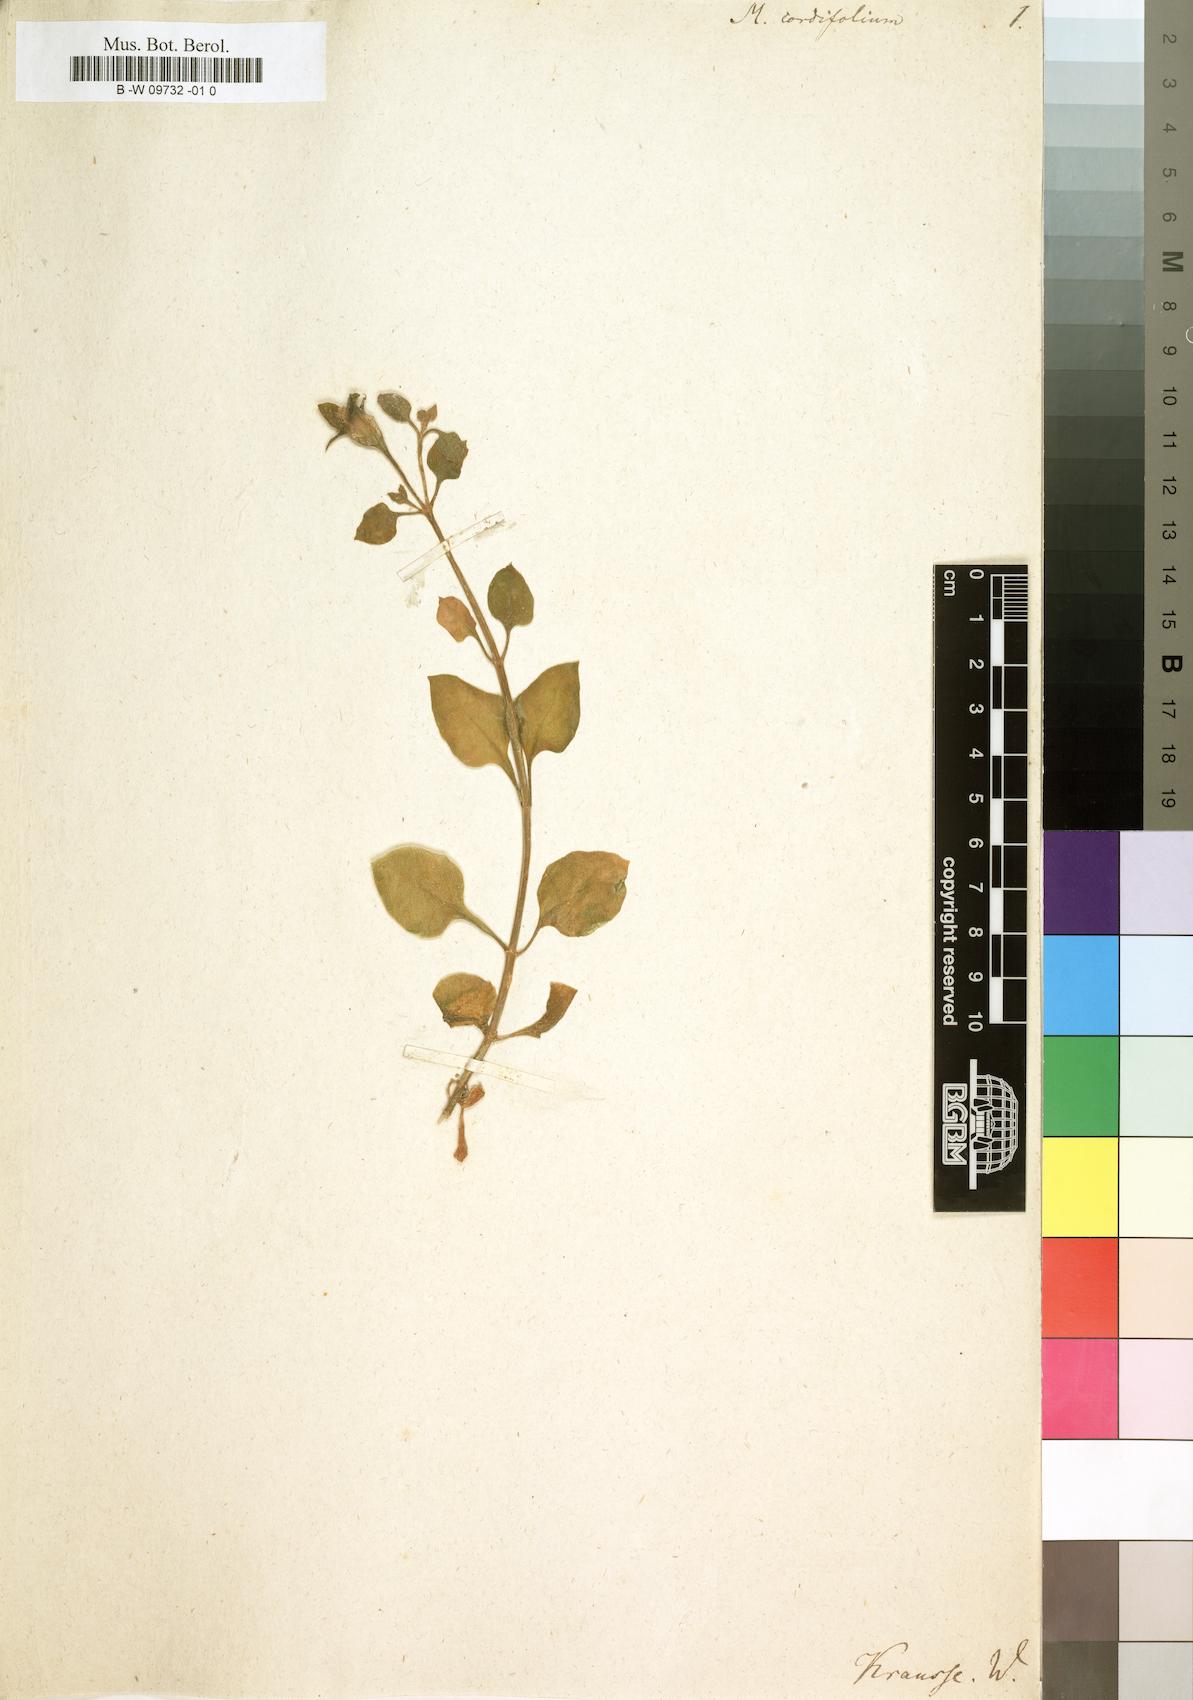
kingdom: Plantae
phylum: Tracheophyta
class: Magnoliopsida
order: Caryophyllales
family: Aizoaceae
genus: Mesembryanthemum
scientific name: Mesembryanthemum cordifolium
